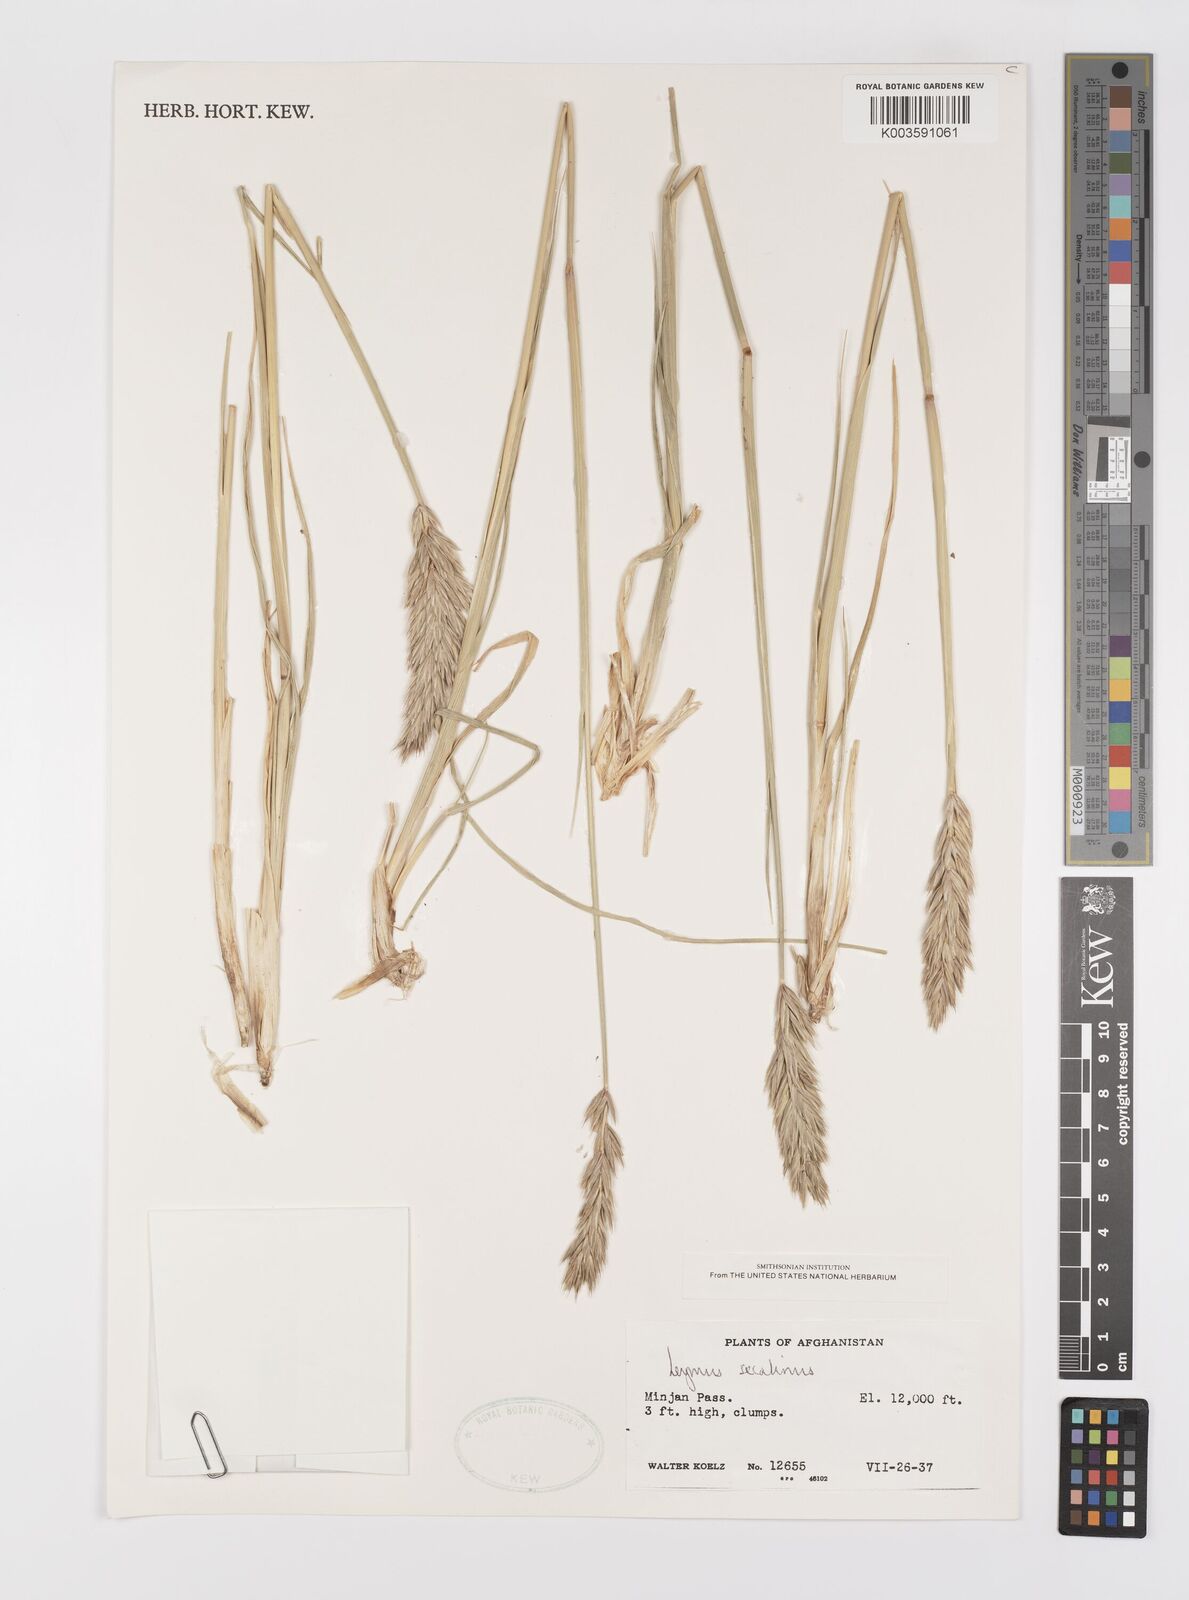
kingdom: Plantae
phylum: Tracheophyta
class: Liliopsida
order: Poales
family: Poaceae
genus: Leymus
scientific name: Leymus secalinus
